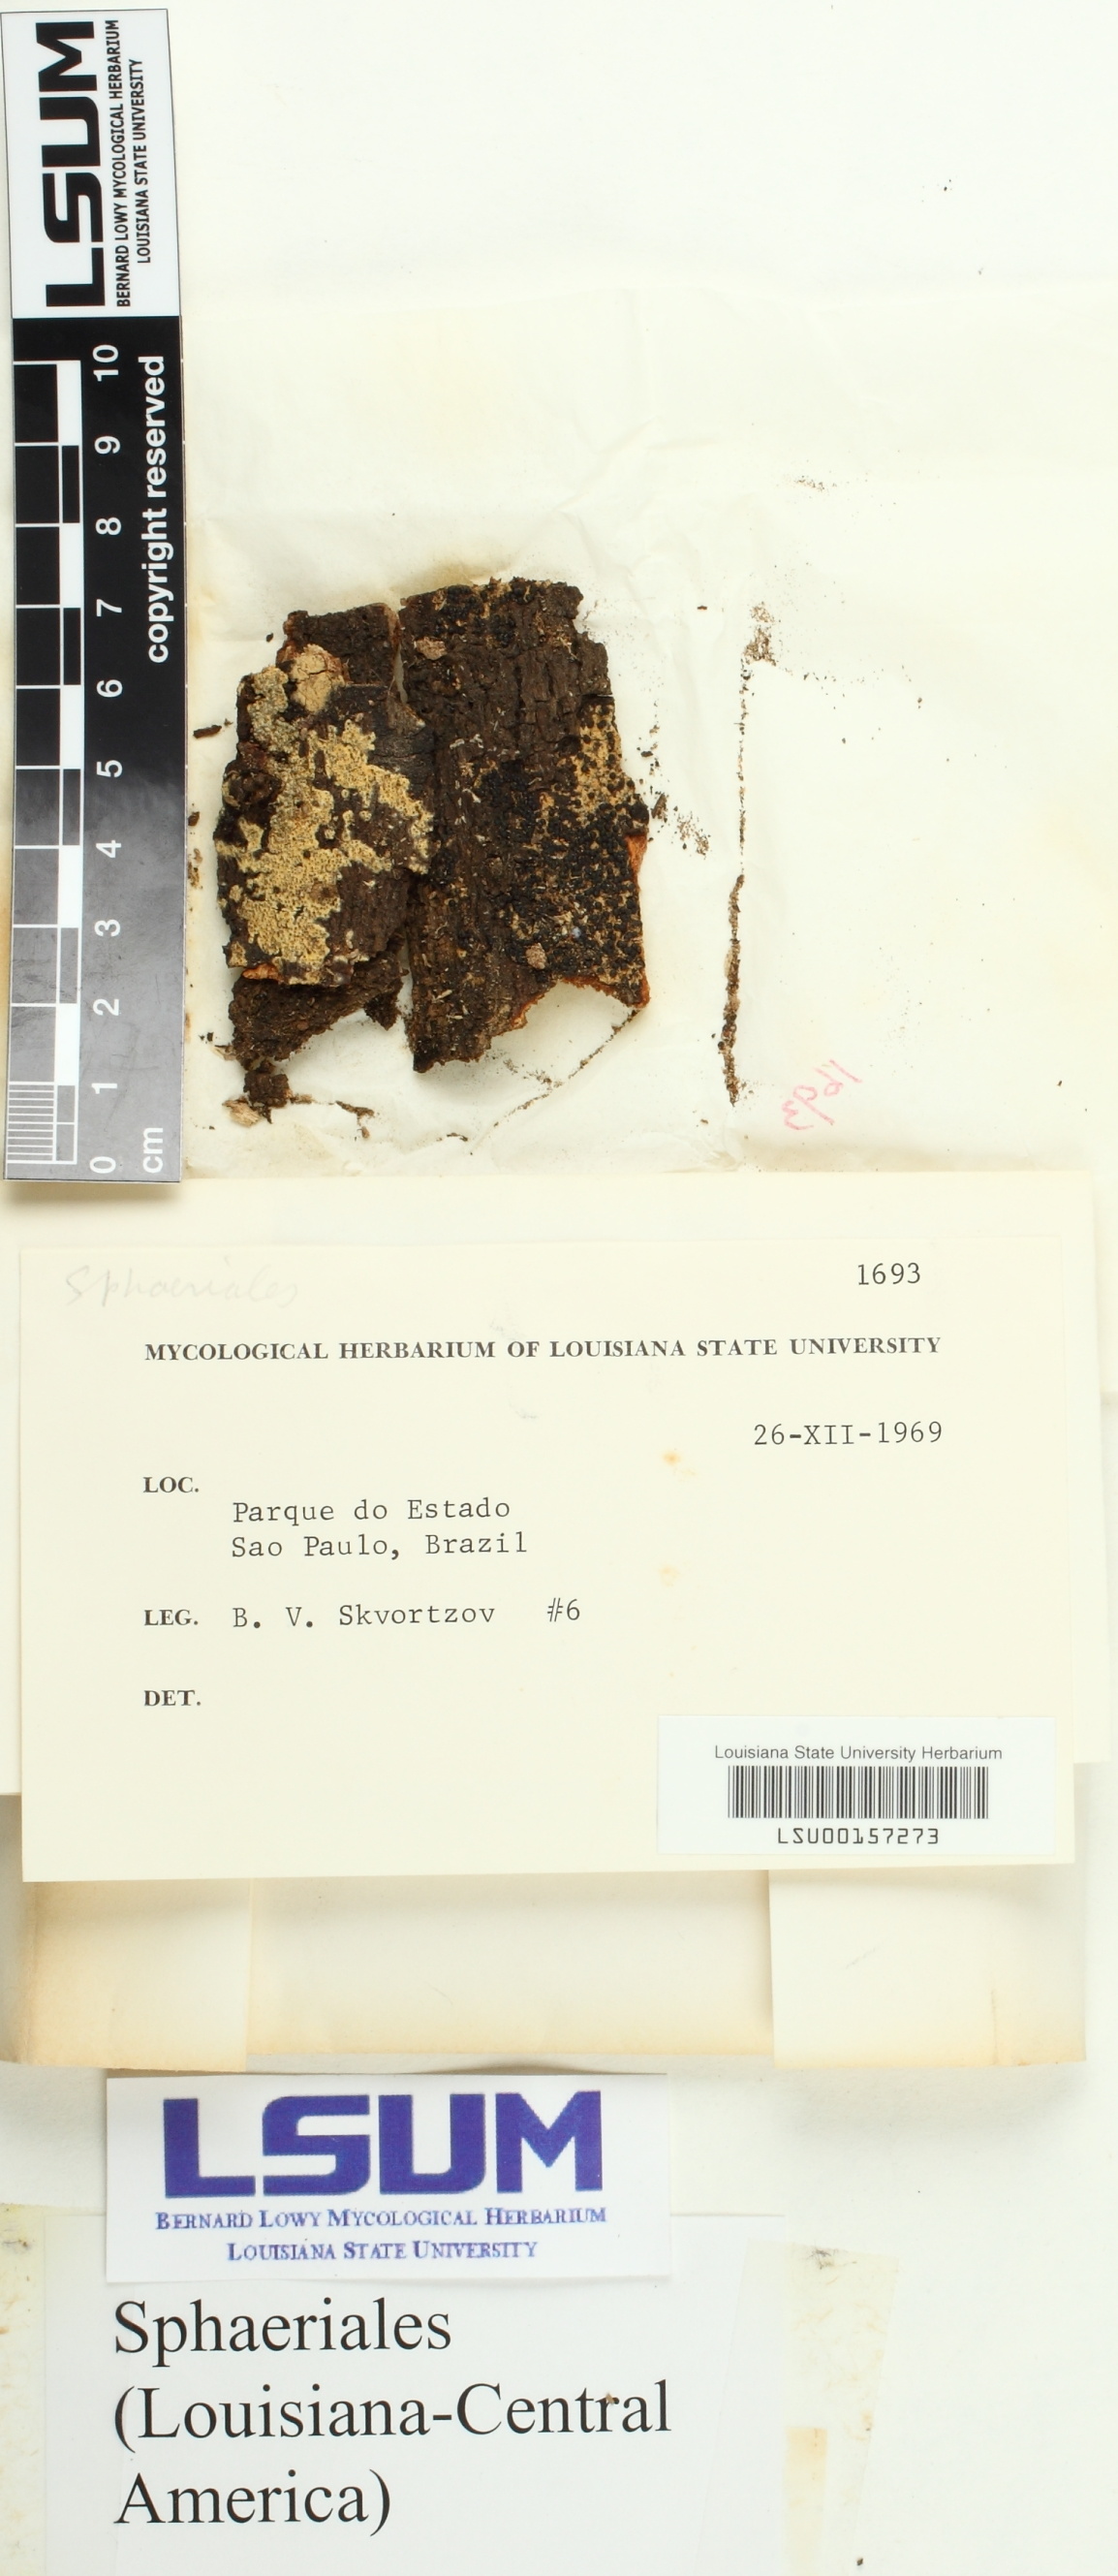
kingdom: Fungi
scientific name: Fungi
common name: Fungi
